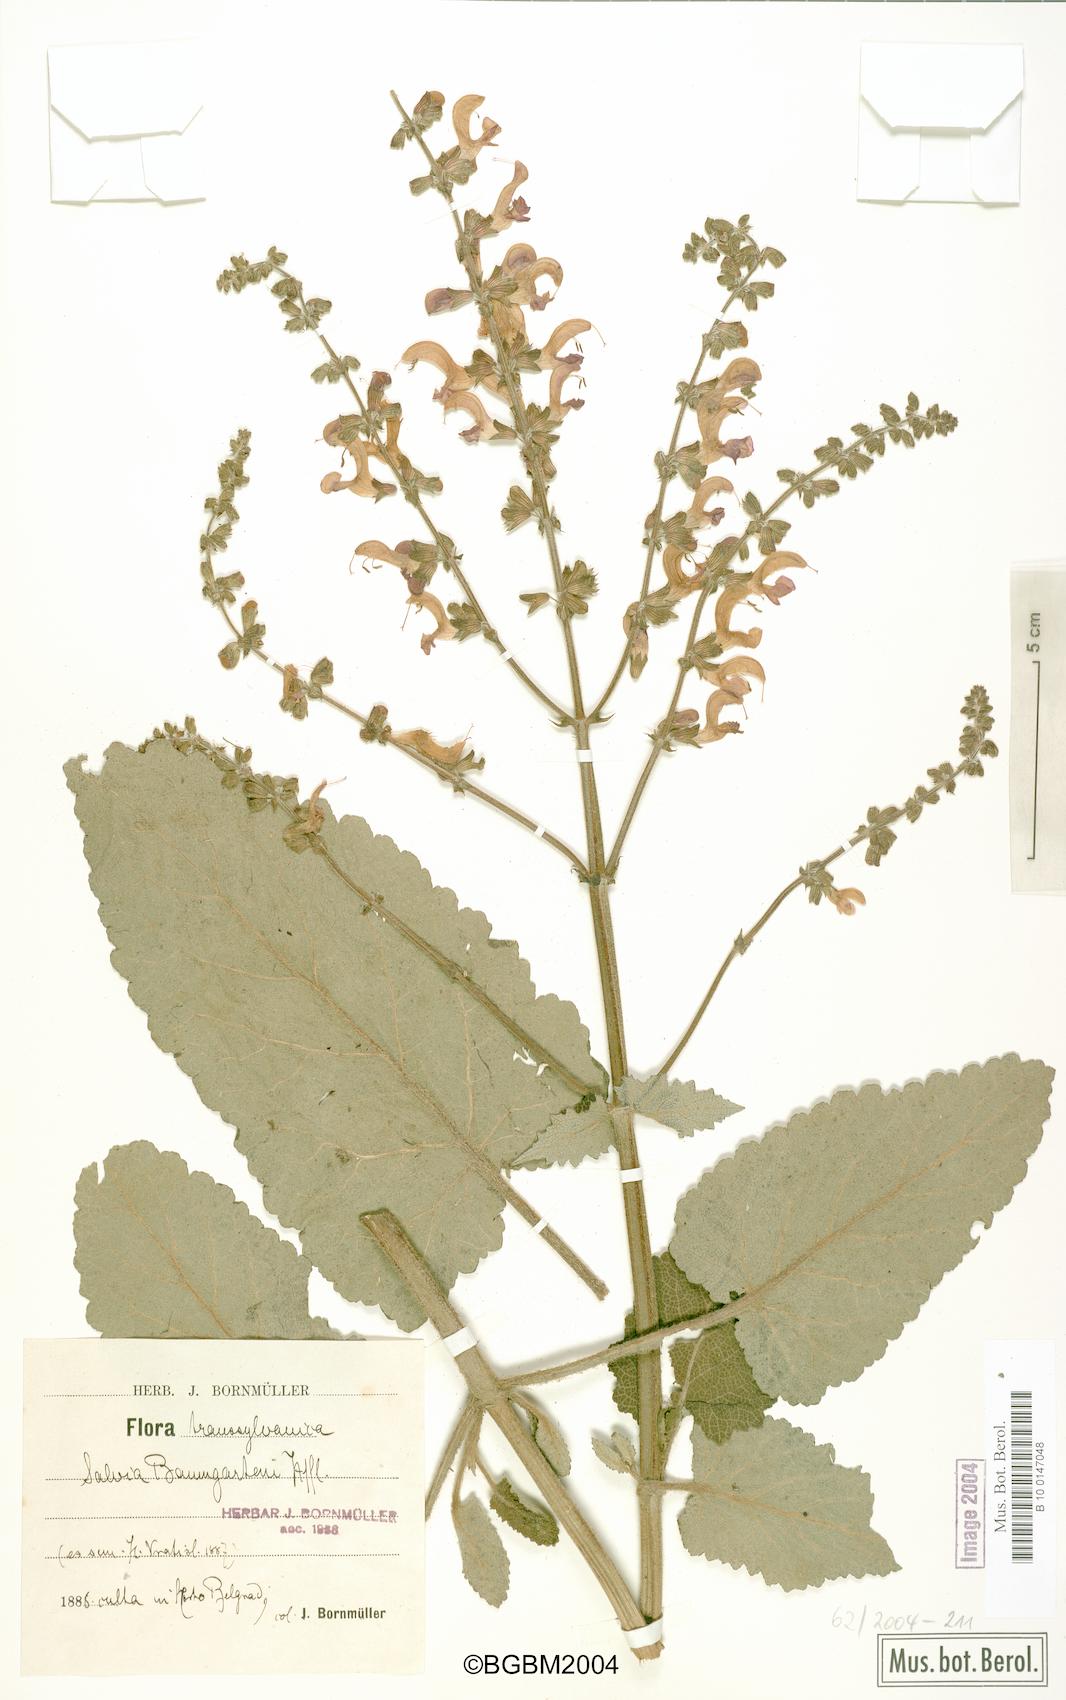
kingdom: Plantae
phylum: Tracheophyta
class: Magnoliopsida
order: Lamiales
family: Lamiaceae
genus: Salvia
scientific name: Salvia transsylvanica
